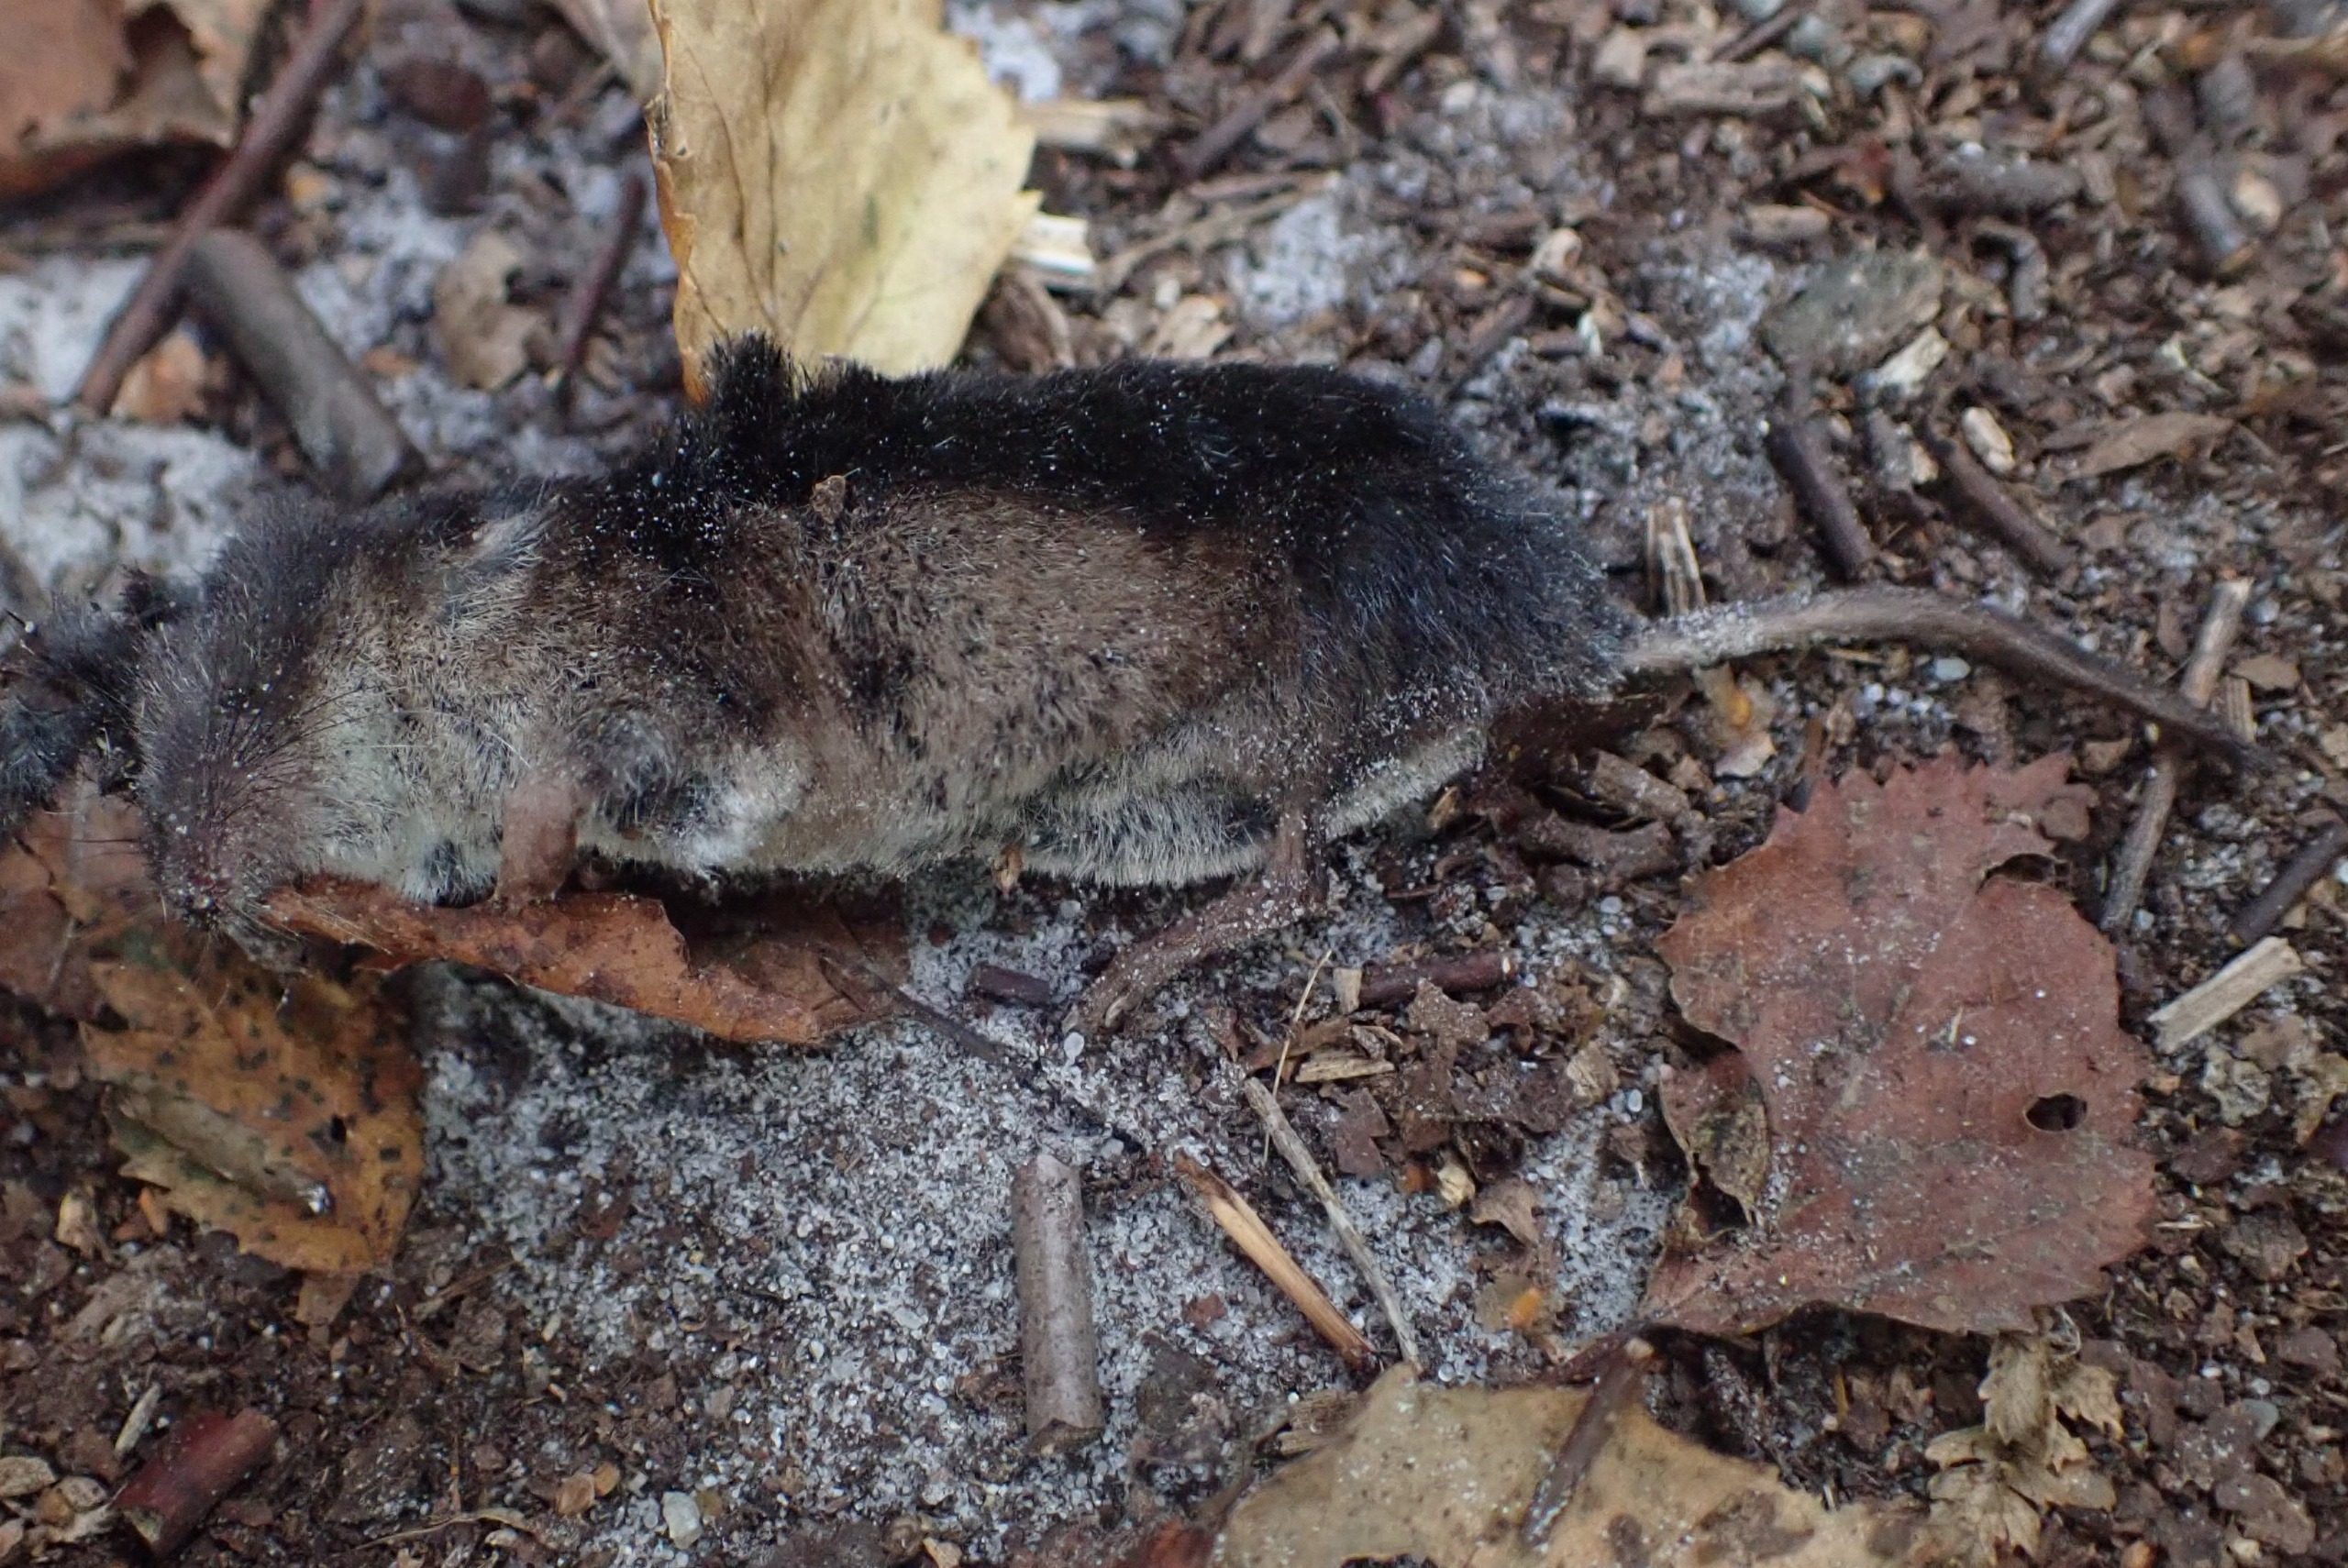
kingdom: Animalia
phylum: Chordata
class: Mammalia
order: Soricomorpha
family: Soricidae
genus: Sorex
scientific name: Sorex araneus
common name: Almindelig spidsmus
